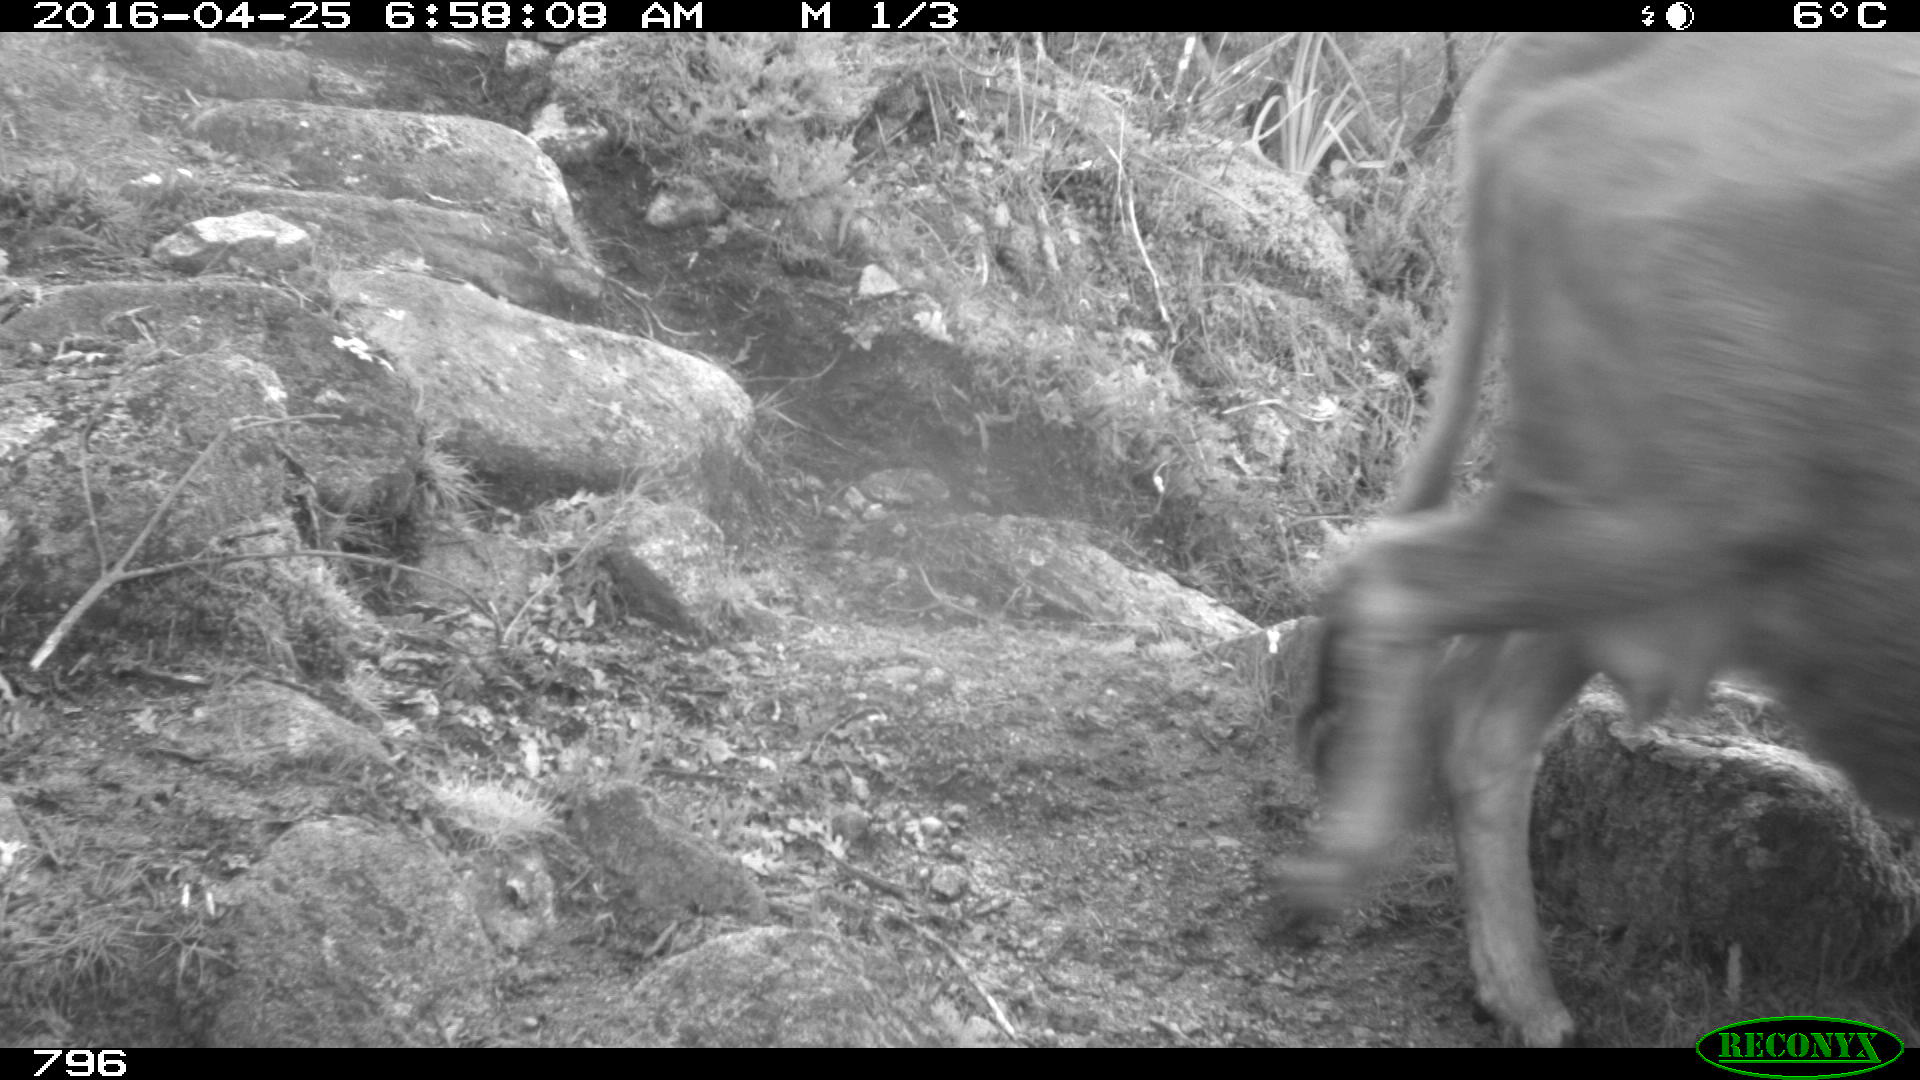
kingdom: Animalia
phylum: Chordata
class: Mammalia
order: Artiodactyla
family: Bovidae
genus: Bos
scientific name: Bos taurus
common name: Domesticated cattle
